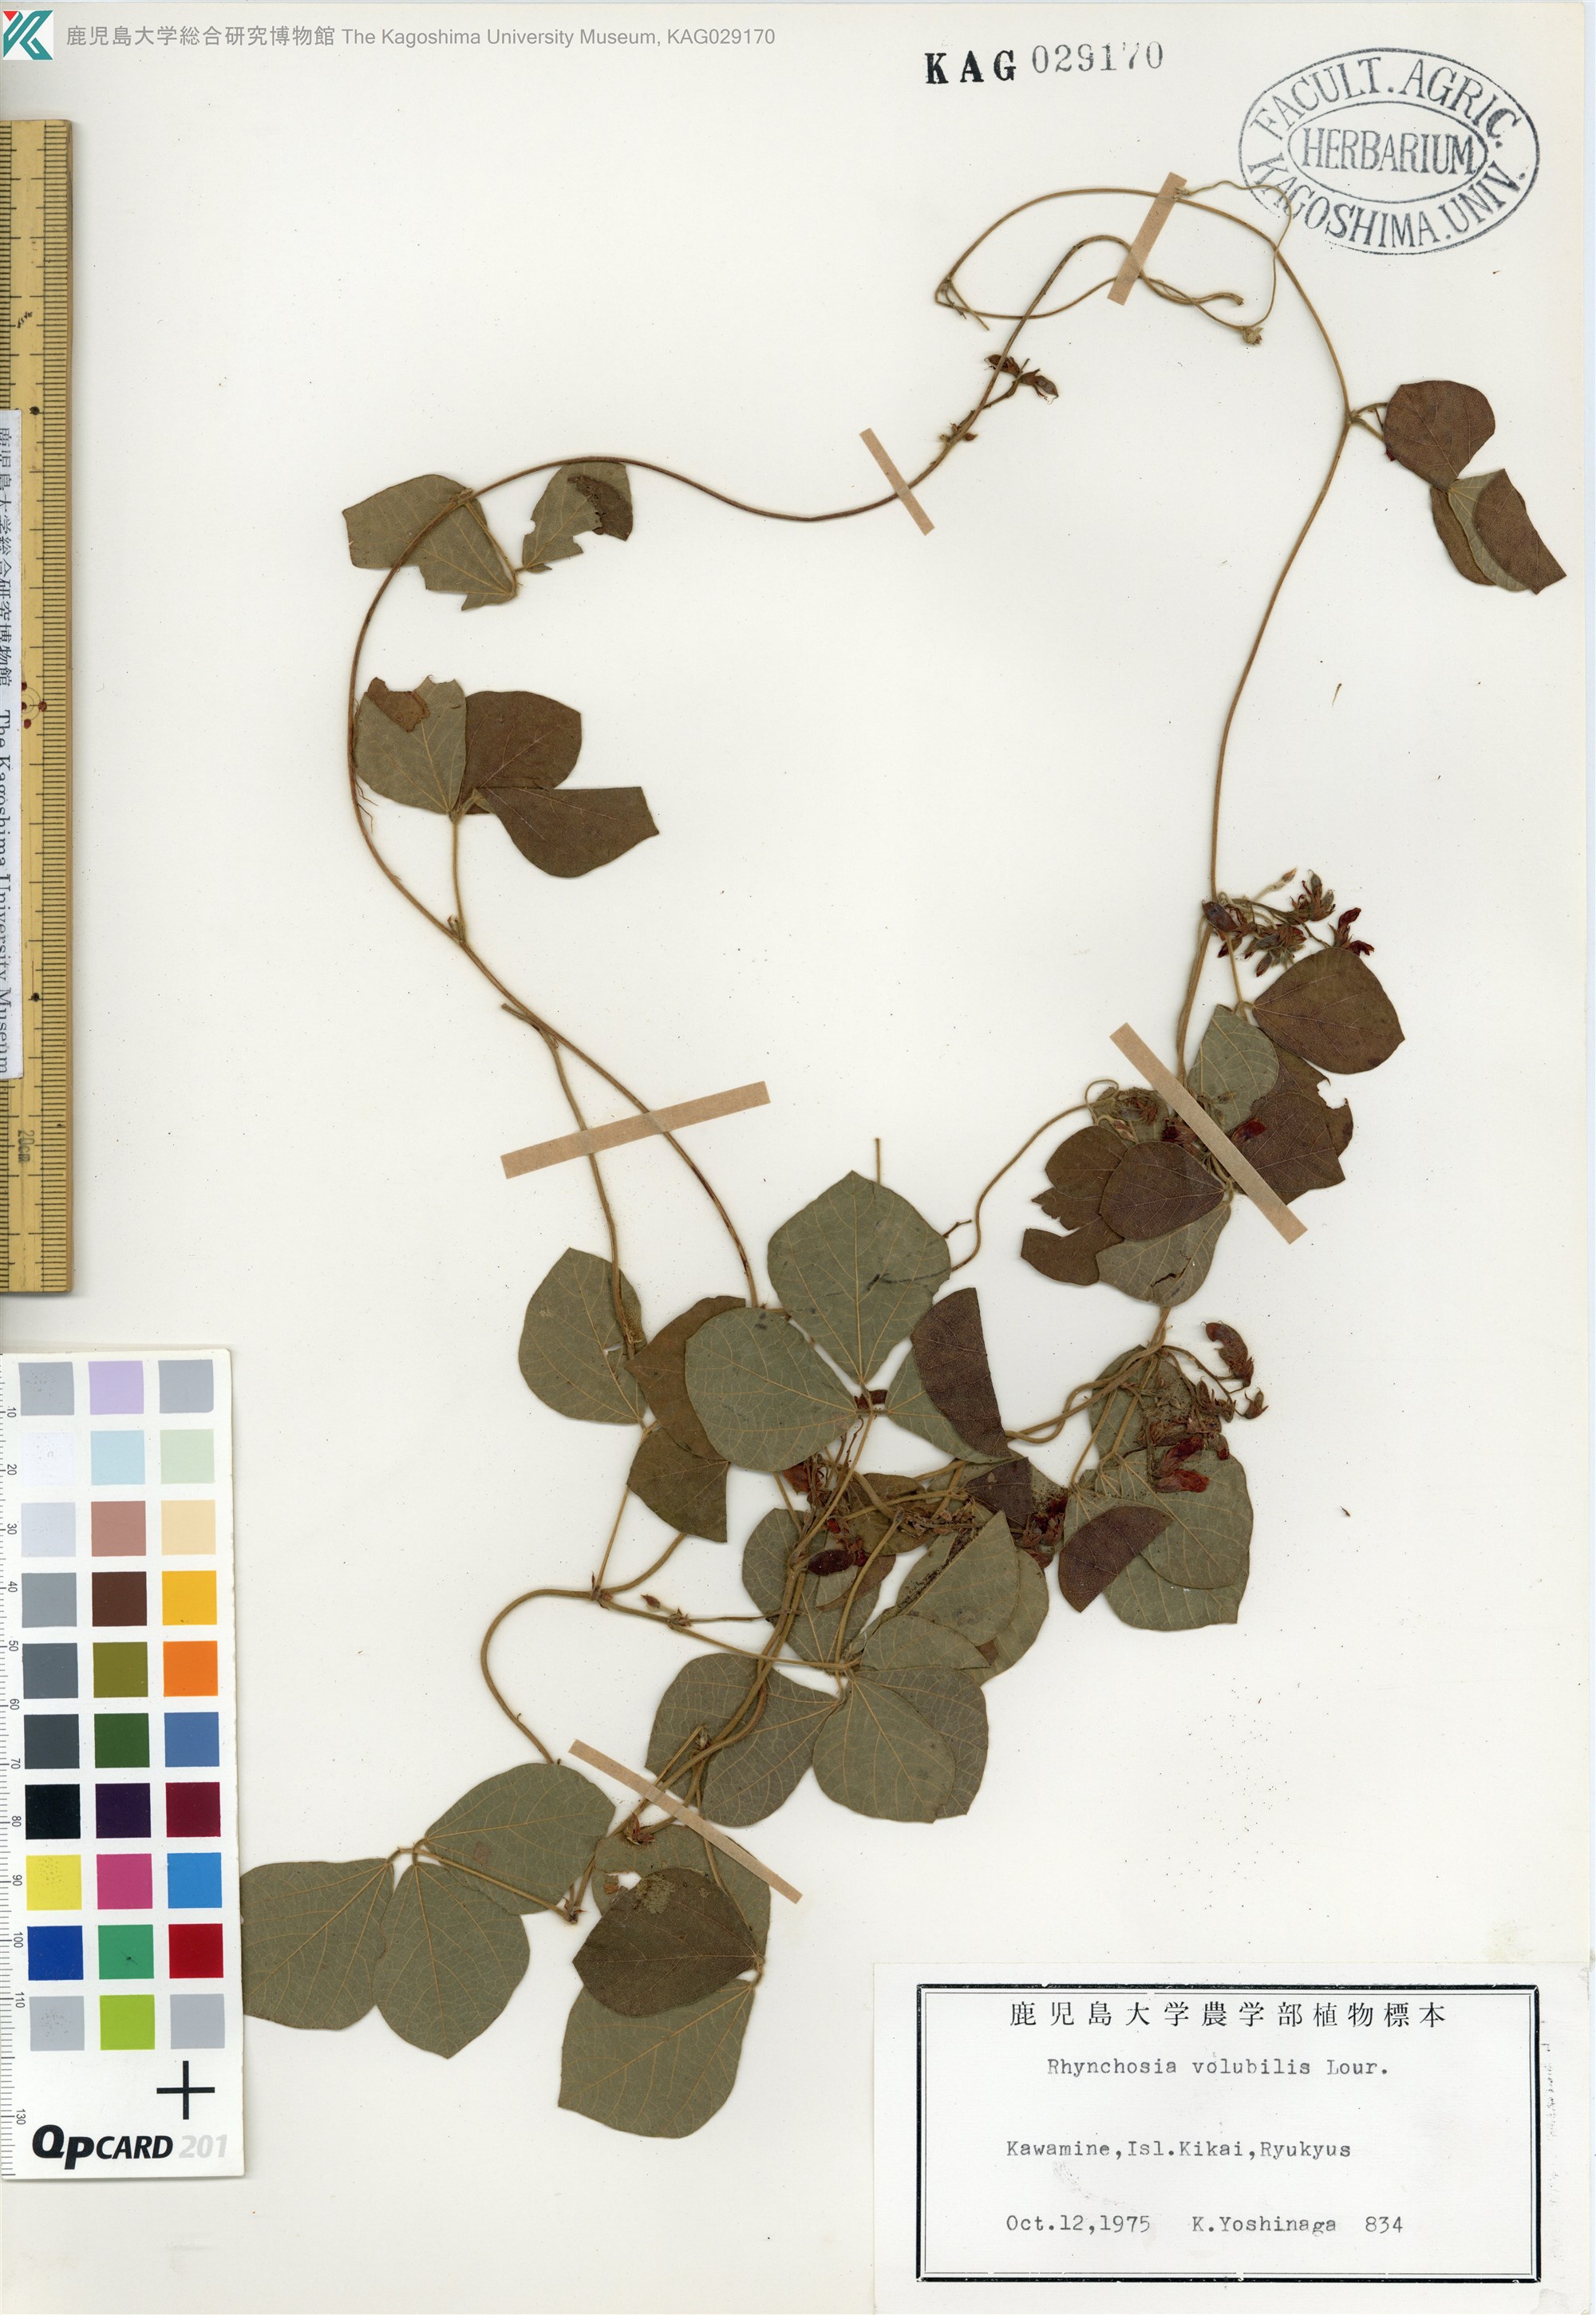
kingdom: Plantae
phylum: Tracheophyta
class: Magnoliopsida
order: Fabales
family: Fabaceae
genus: Rhynchosia
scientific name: Rhynchosia volubilis
